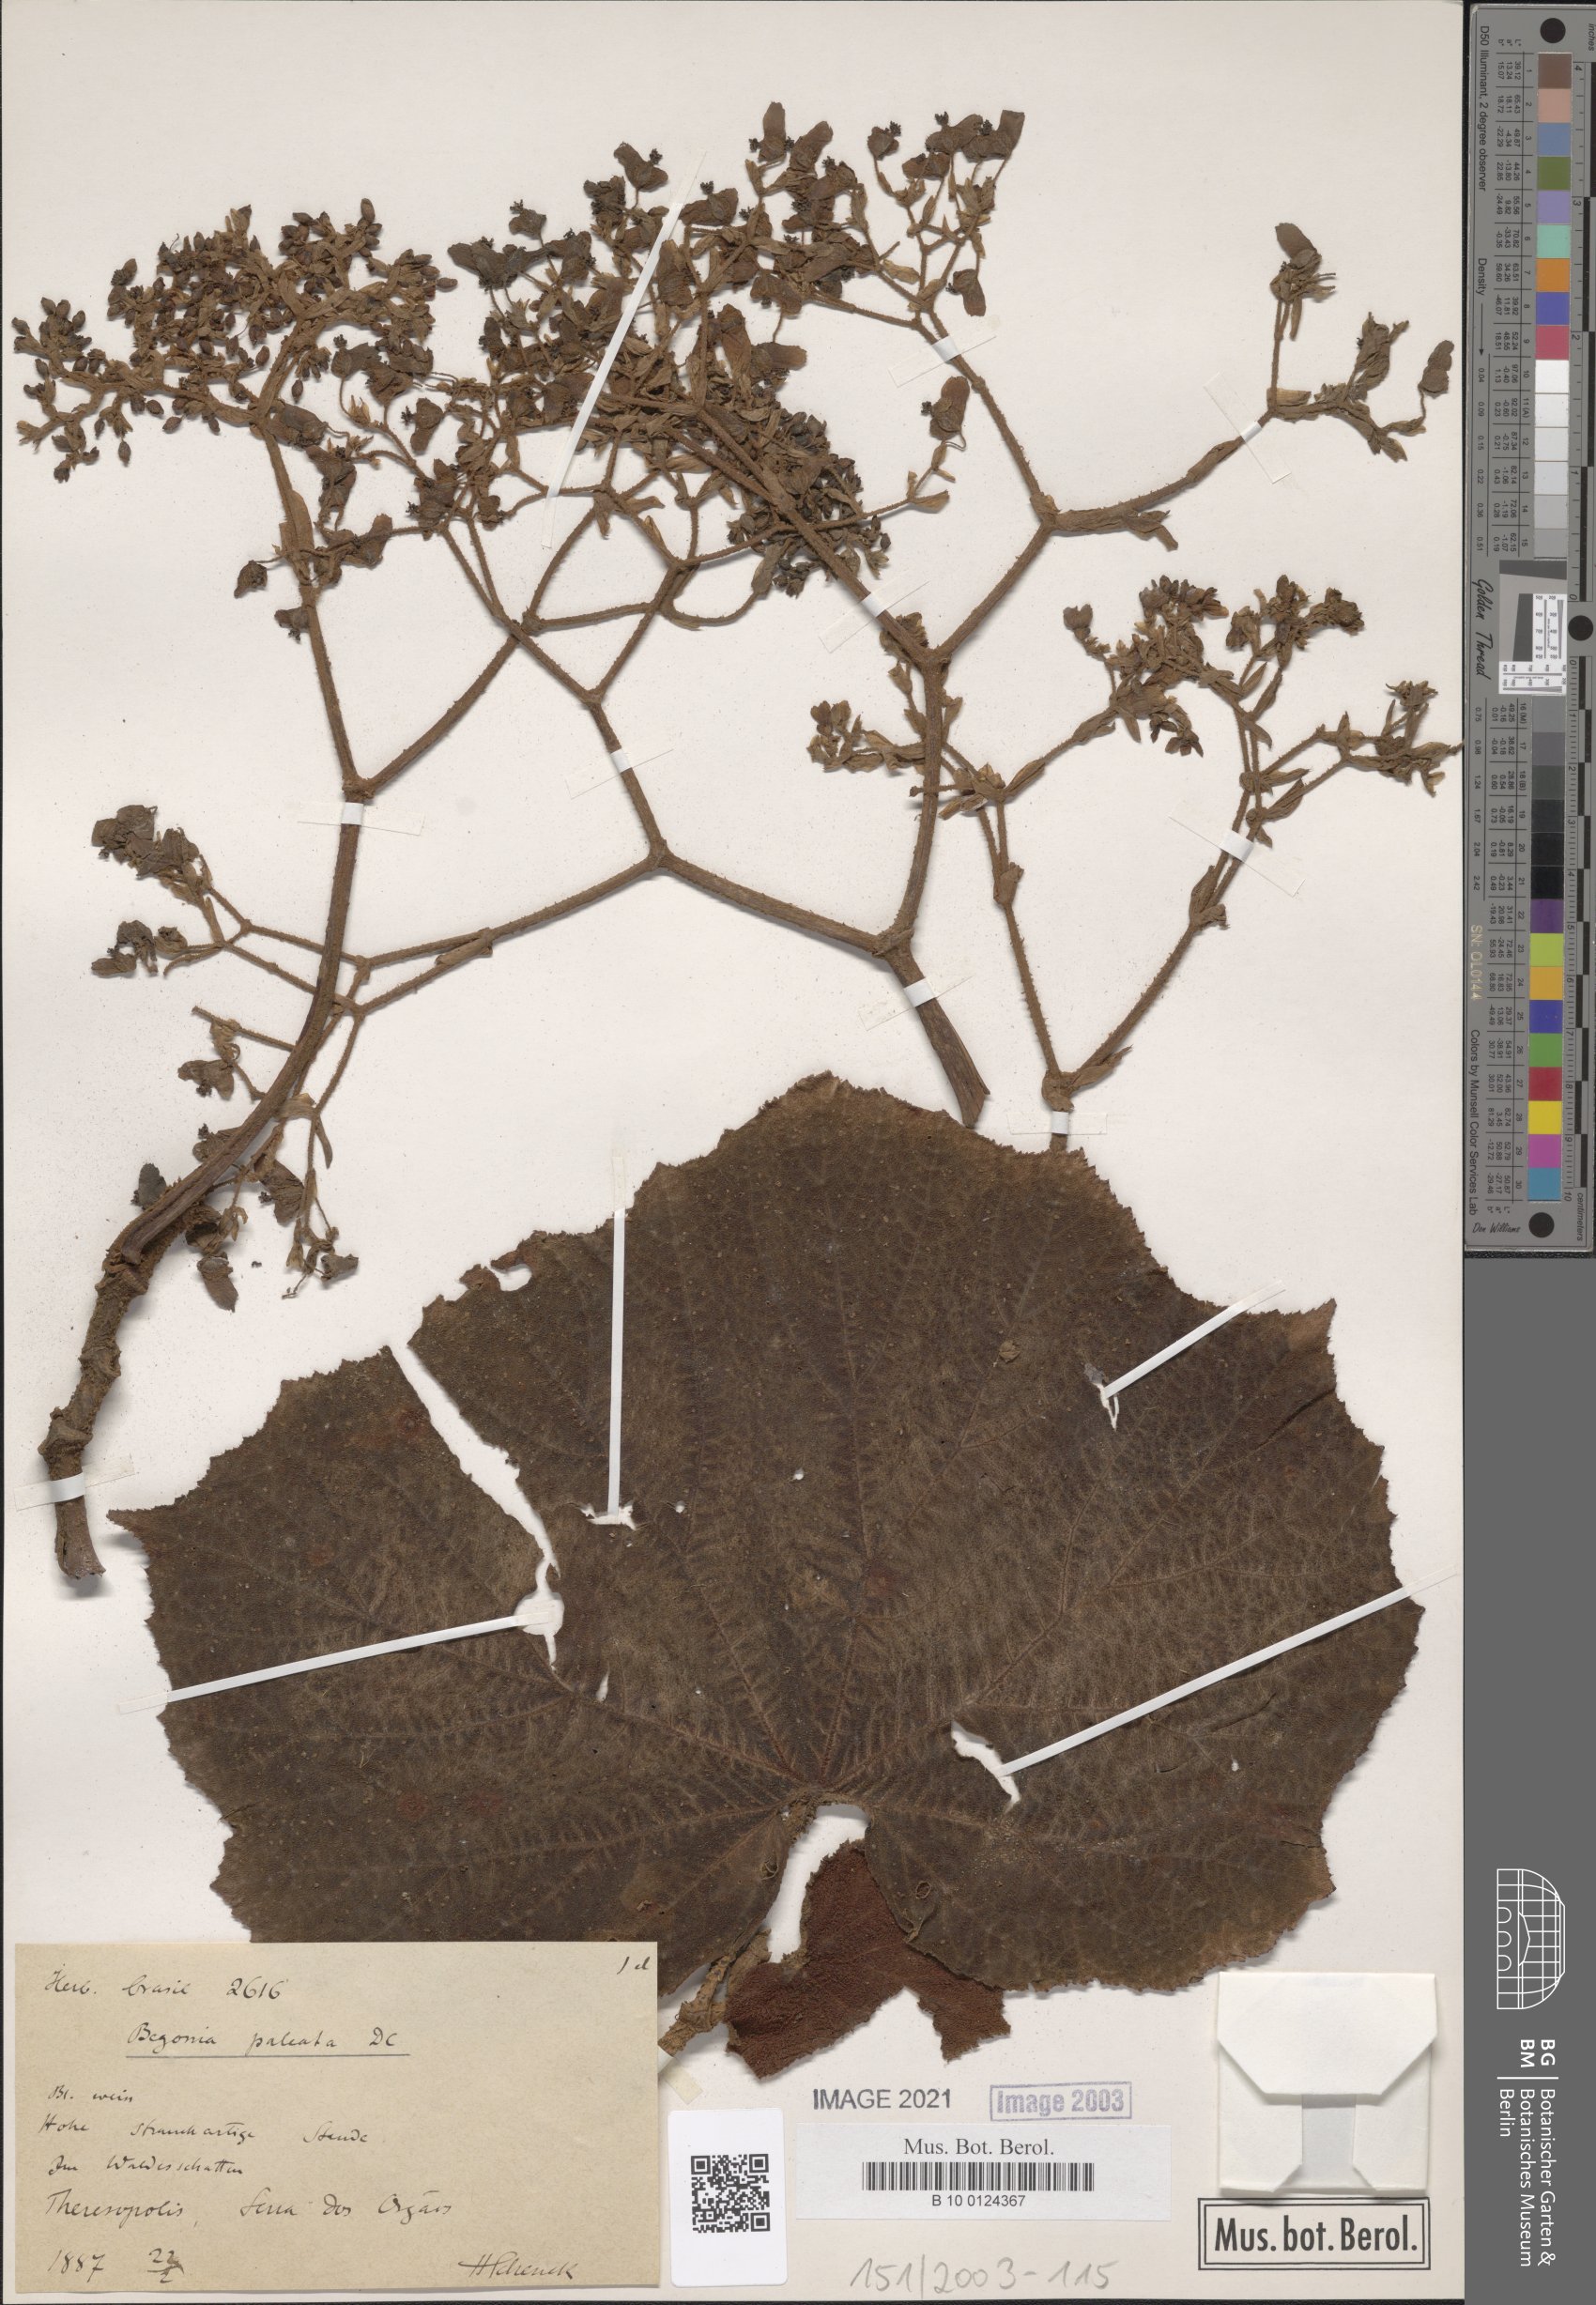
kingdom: Plantae
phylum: Tracheophyta
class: Magnoliopsida
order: Cucurbitales
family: Begoniaceae
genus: Begonia
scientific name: Begonia paleata
